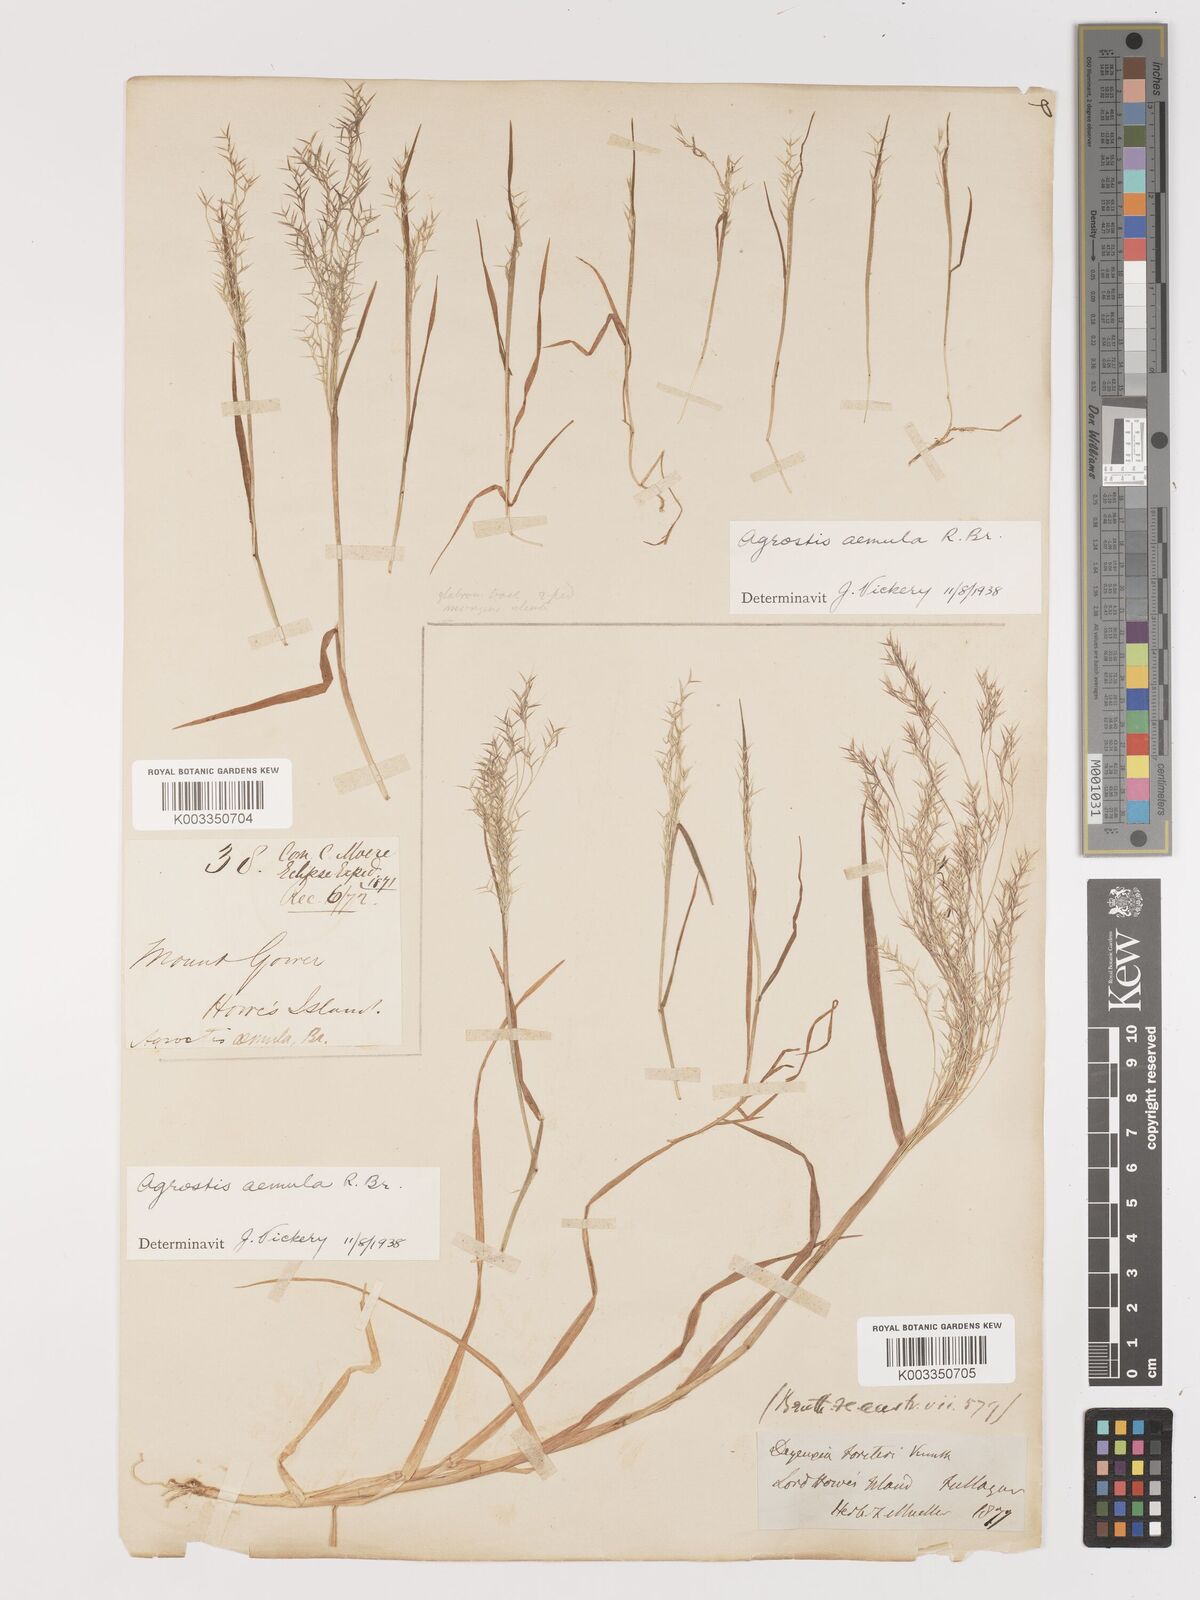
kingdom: Plantae
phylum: Tracheophyta
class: Liliopsida
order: Poales
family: Poaceae
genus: Lachnagrostis
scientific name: Lachnagrostis aemula
